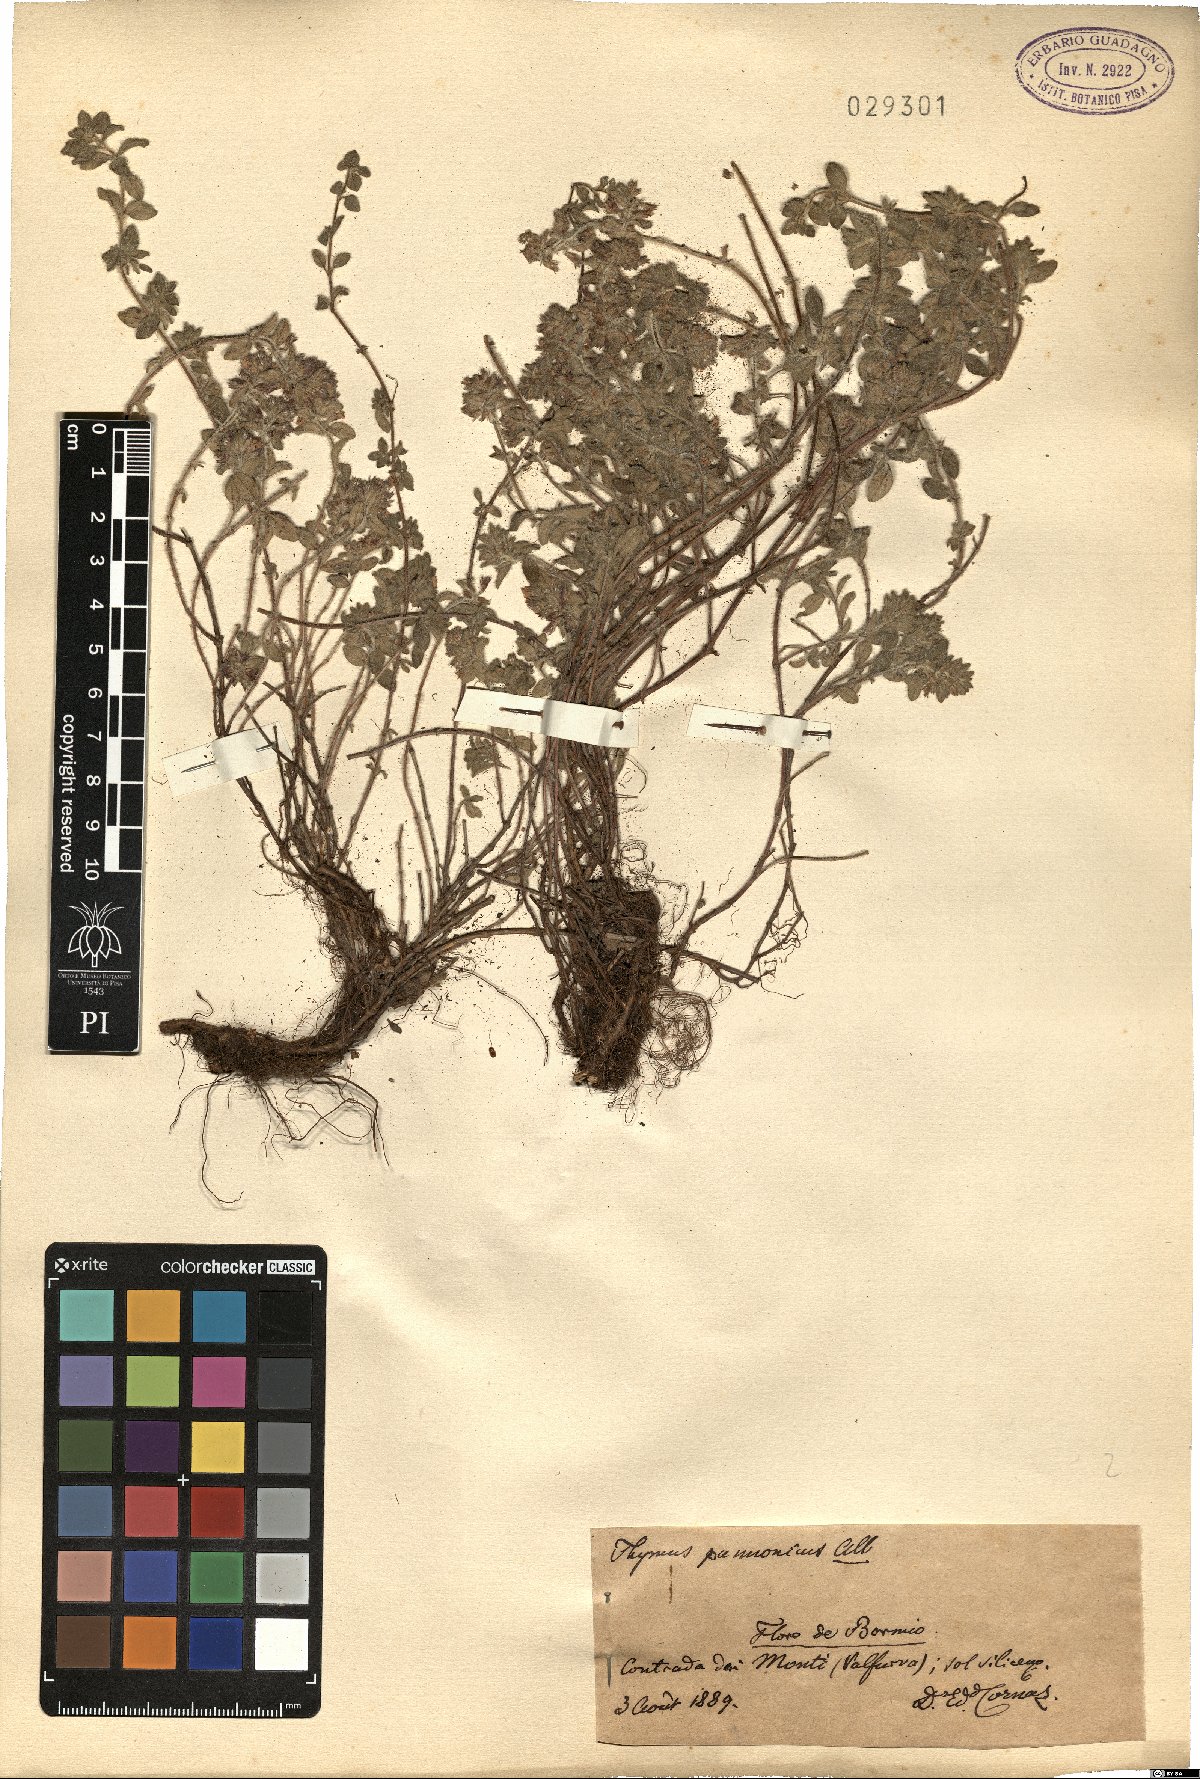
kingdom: Plantae
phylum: Tracheophyta
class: Magnoliopsida
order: Lamiales
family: Lamiaceae
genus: Thymus
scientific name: Thymus pannonicus
